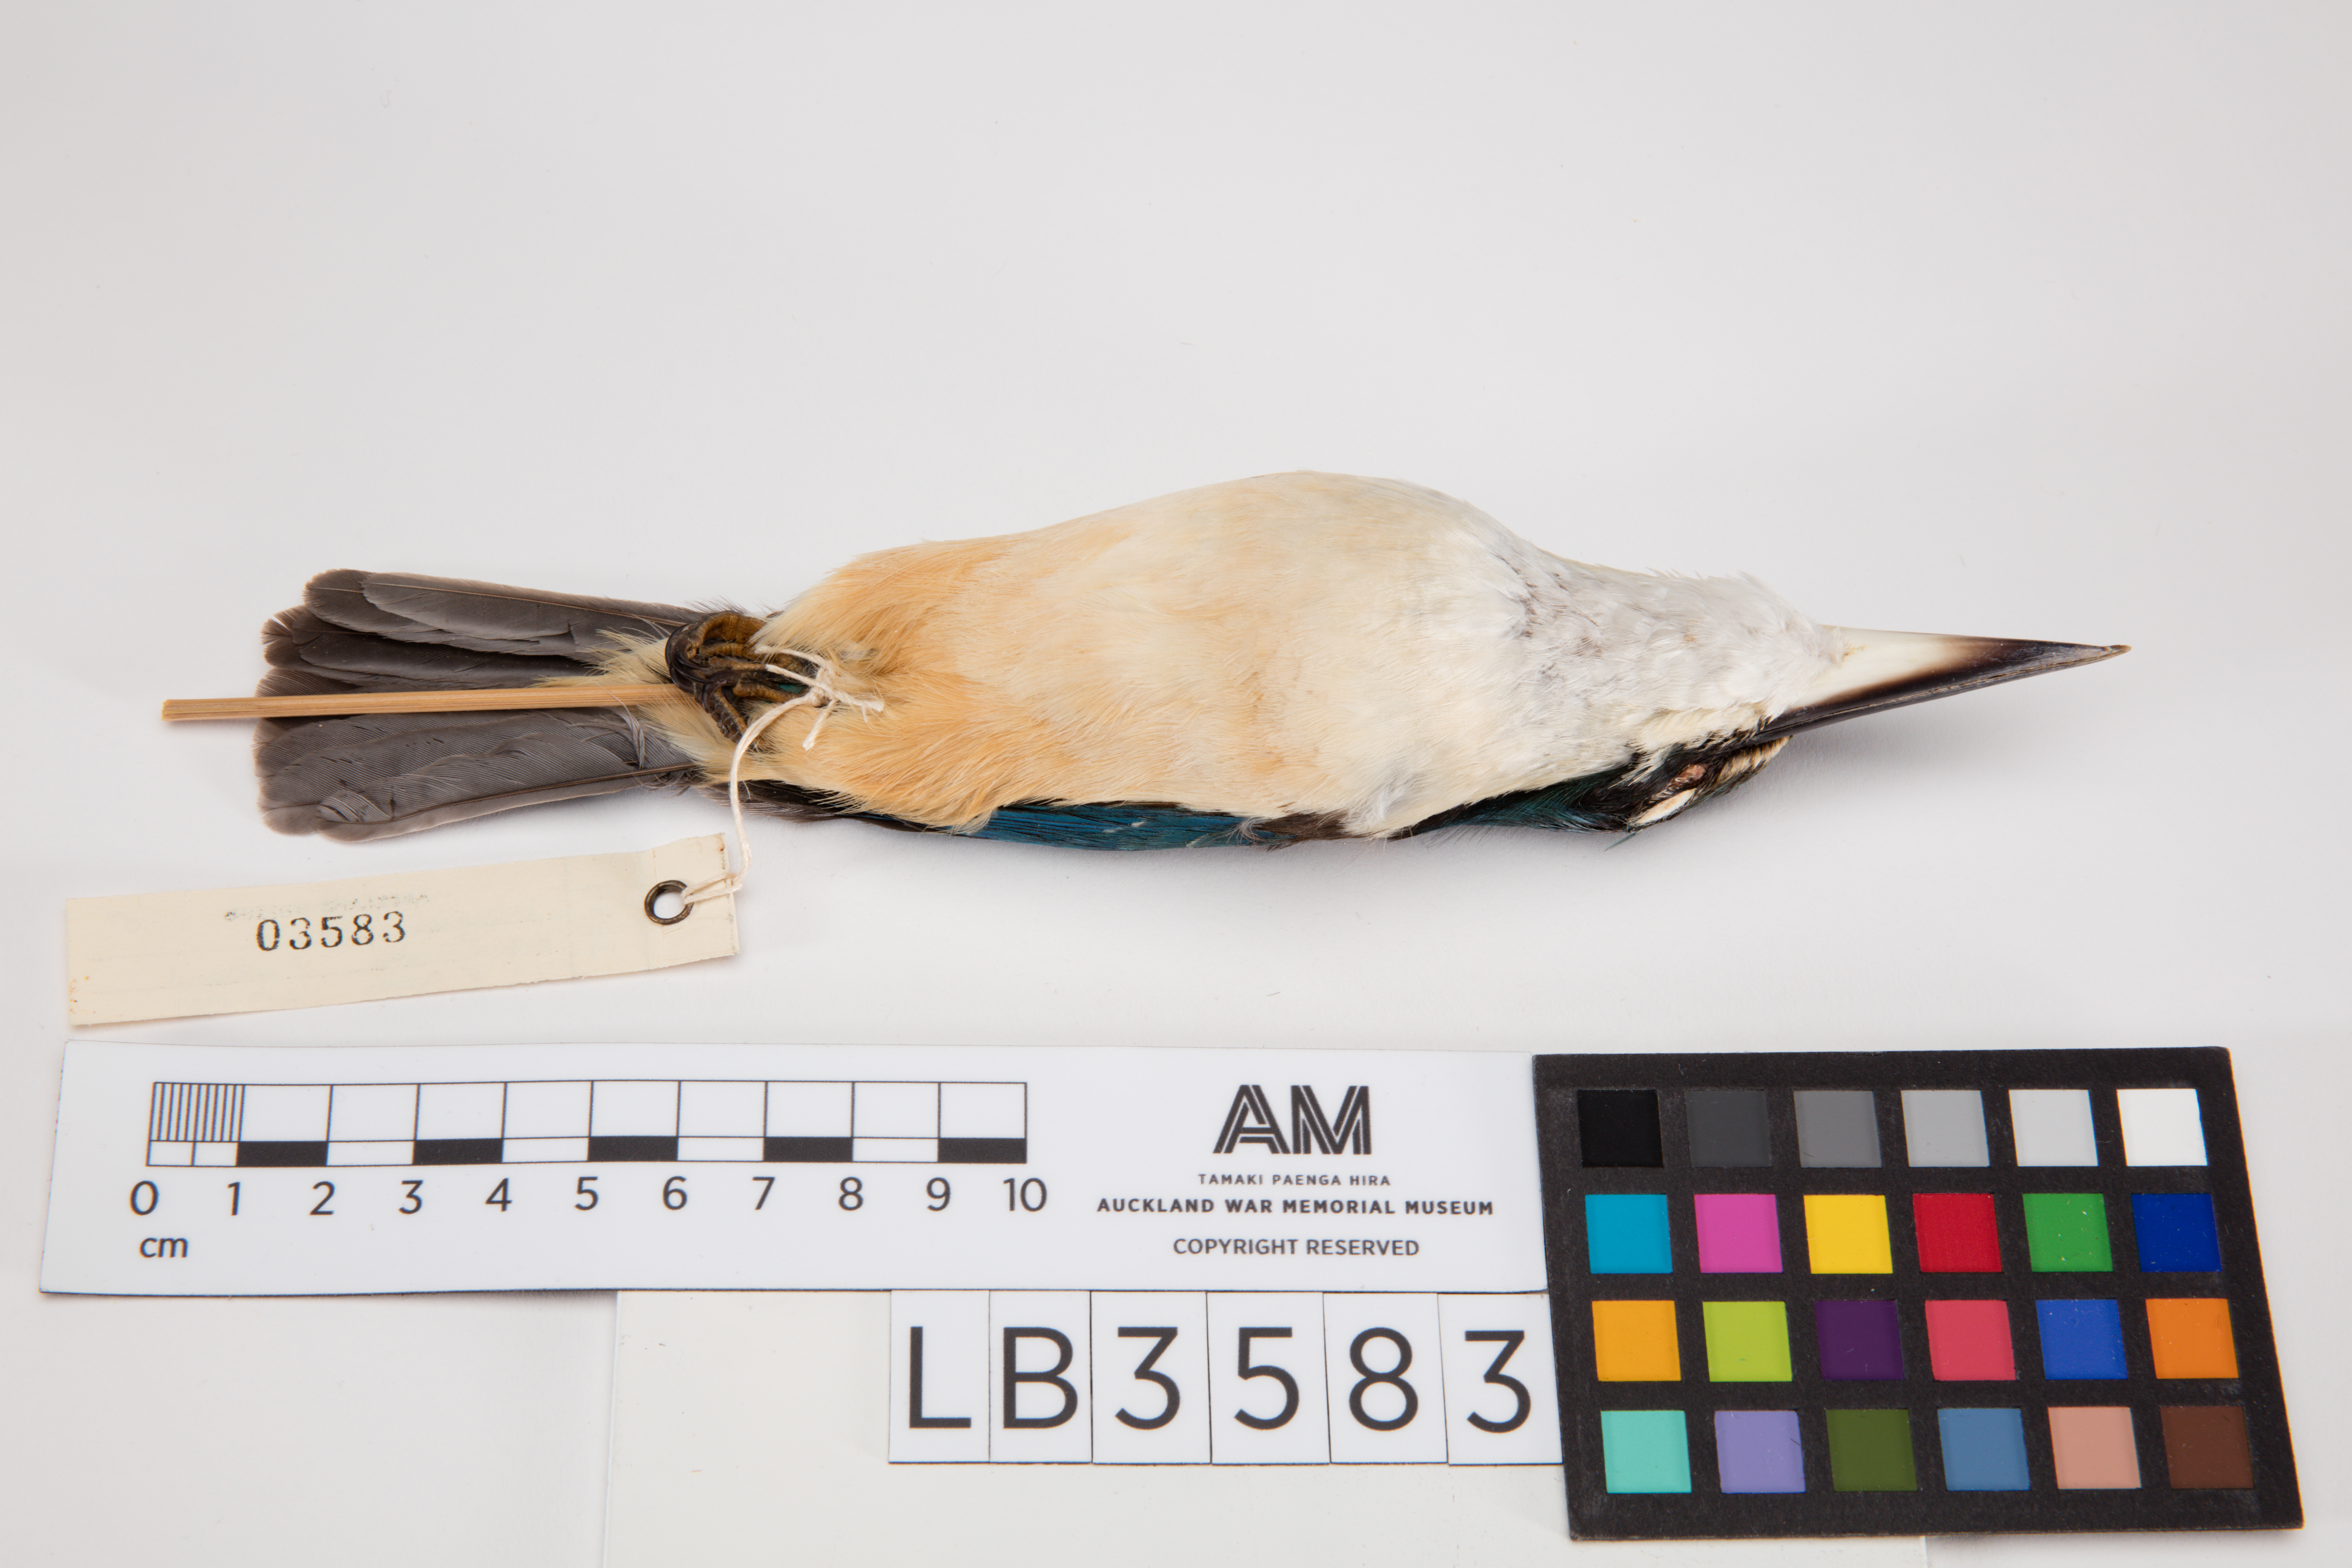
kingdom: Animalia
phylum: Chordata
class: Aves
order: Coraciiformes
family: Alcedinidae
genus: Todiramphus
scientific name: Todiramphus sanctus
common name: Sacred kingfisher
